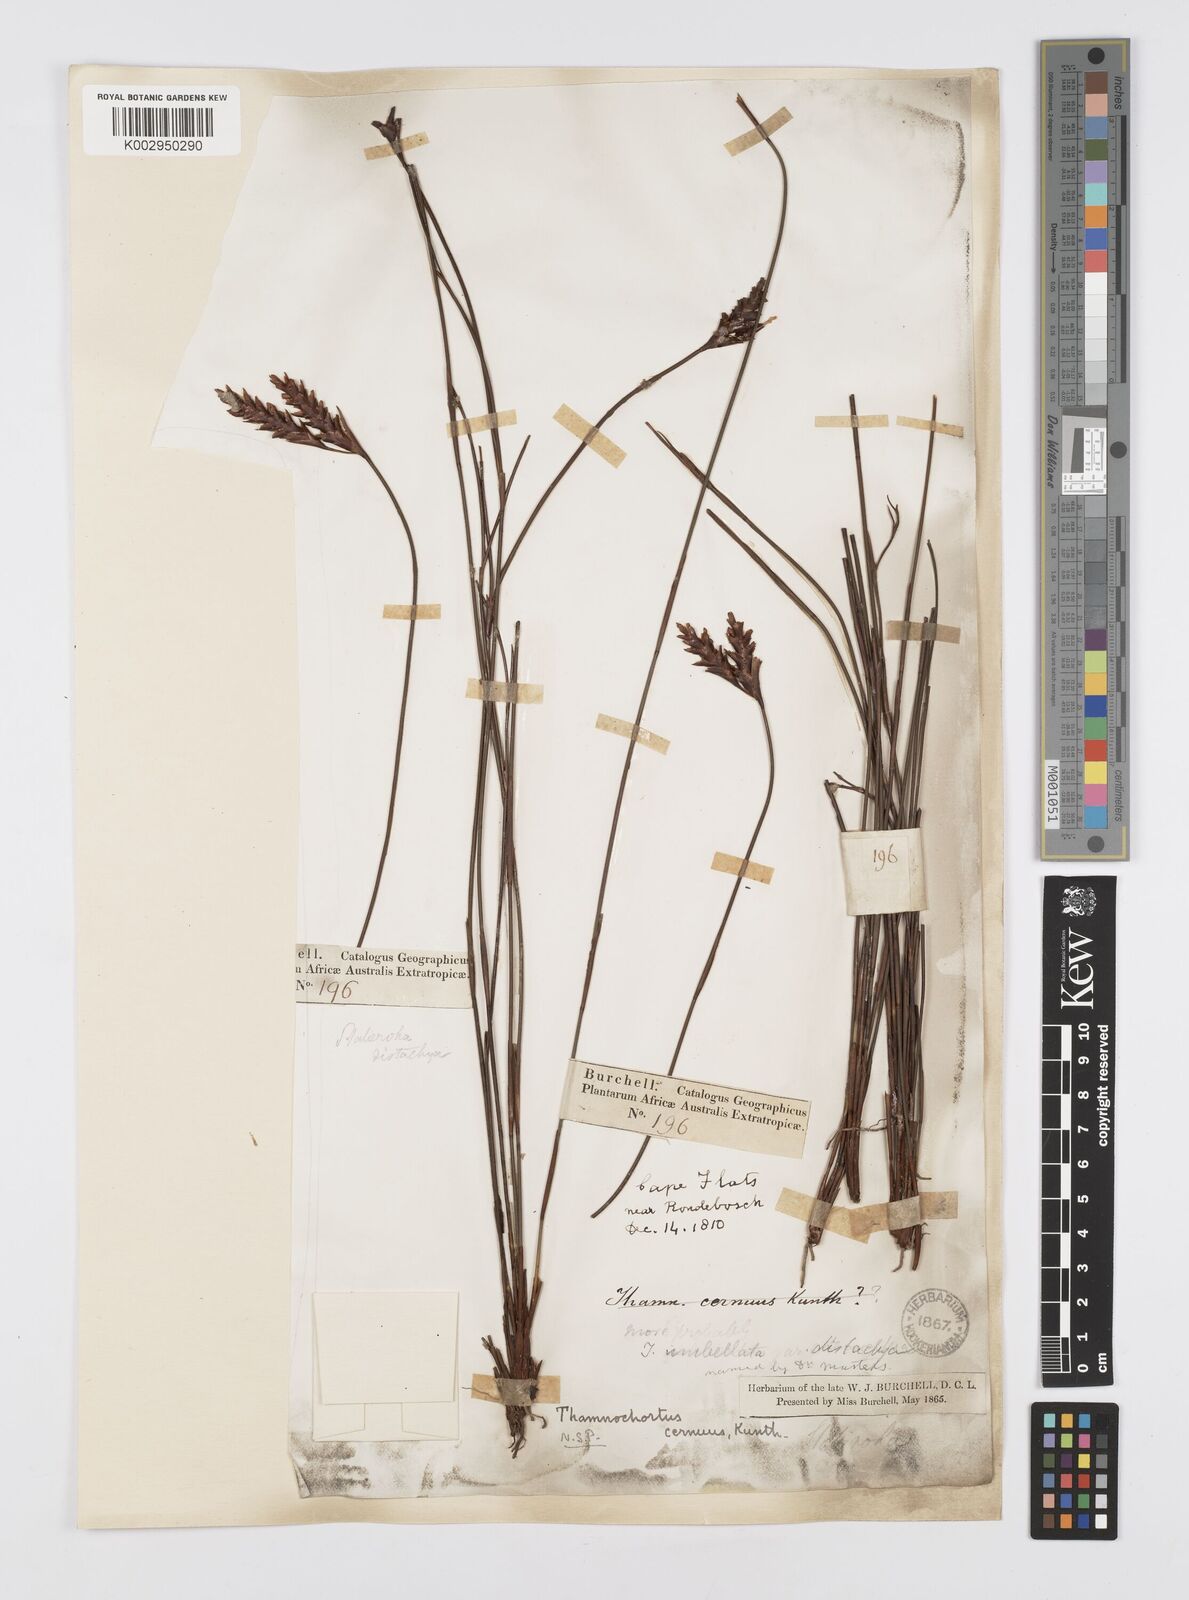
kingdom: Plantae
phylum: Tracheophyta
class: Liliopsida
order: Poales
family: Restionaceae
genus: Staberoha
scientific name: Staberoha cernua
